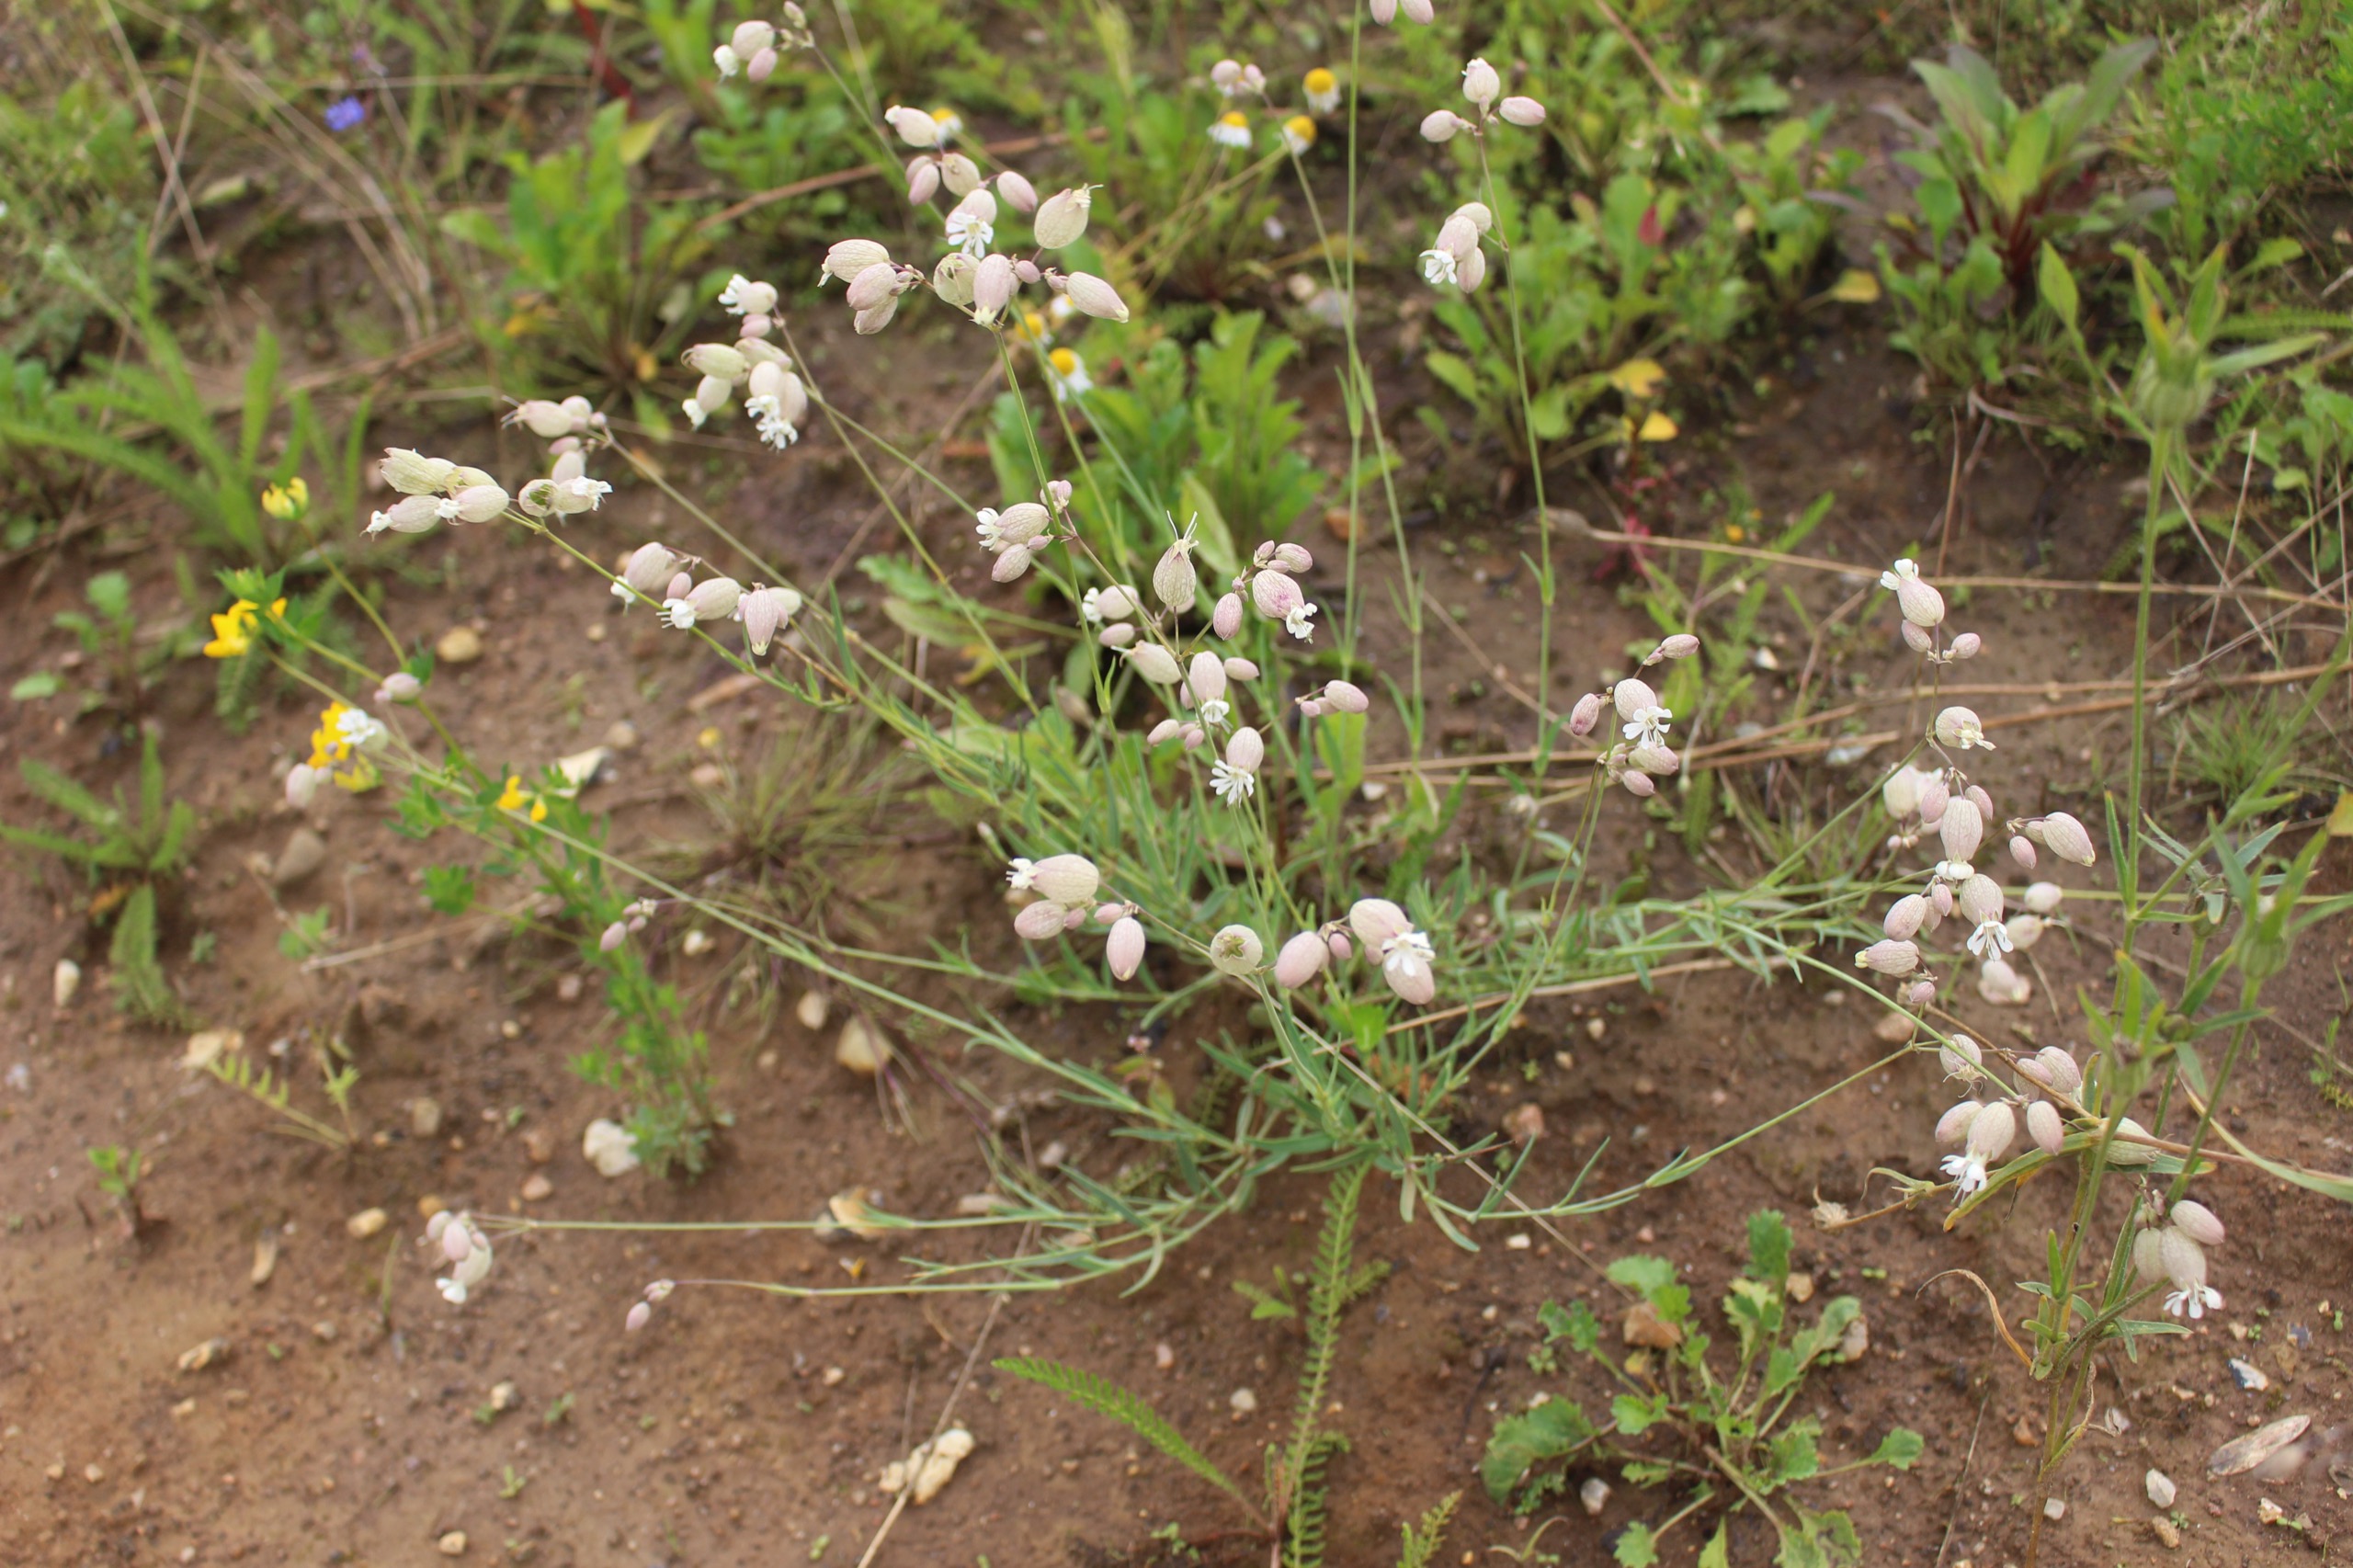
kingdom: Plantae
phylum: Tracheophyta
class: Magnoliopsida
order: Caryophyllales
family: Caryophyllaceae
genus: Silene
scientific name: Silene vulgaris
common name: Blæresmælde
